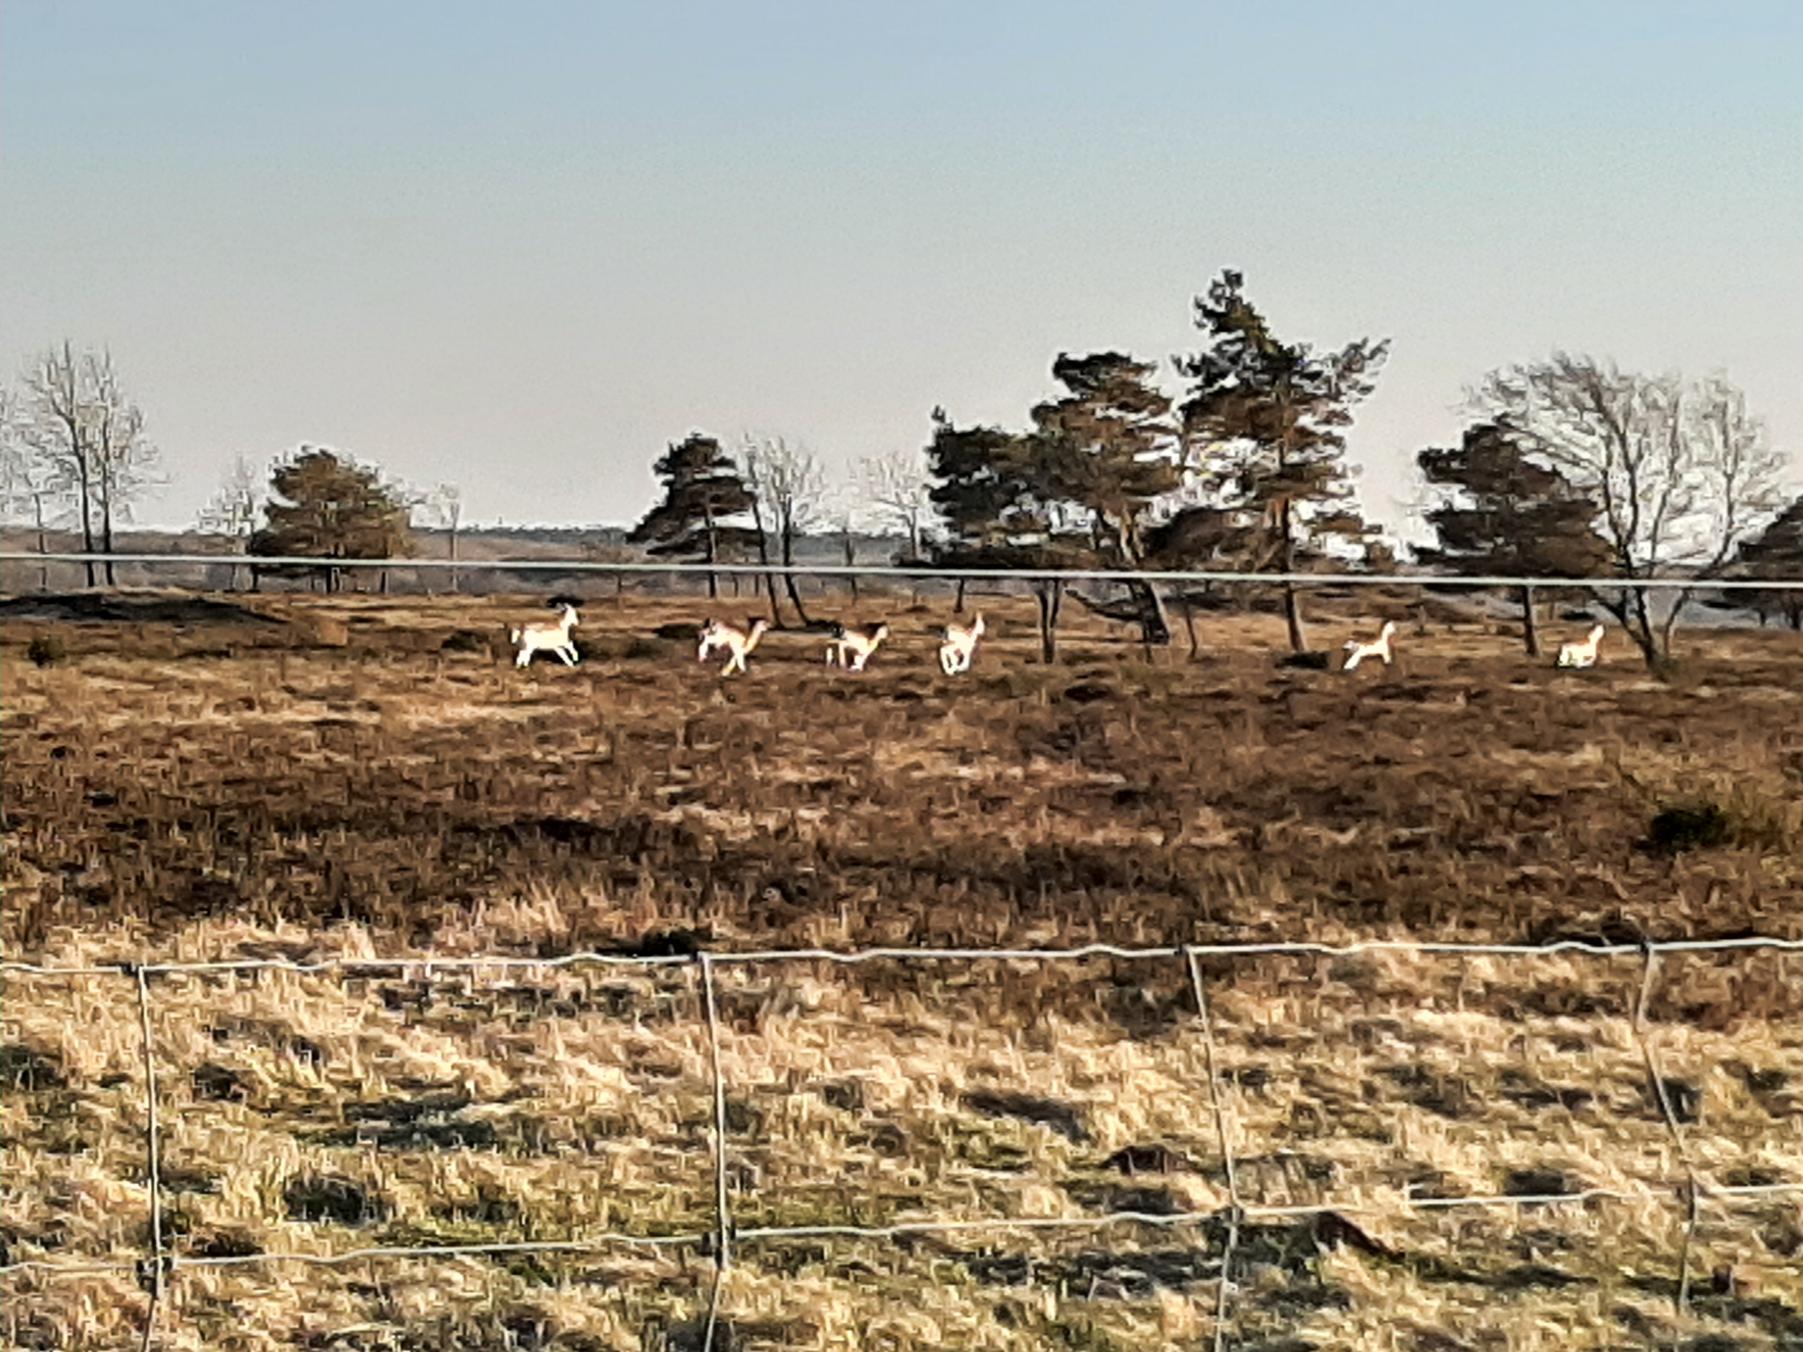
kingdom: Animalia
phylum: Chordata
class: Mammalia
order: Artiodactyla
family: Cervidae
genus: Dama
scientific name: Dama dama
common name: Dådyr
